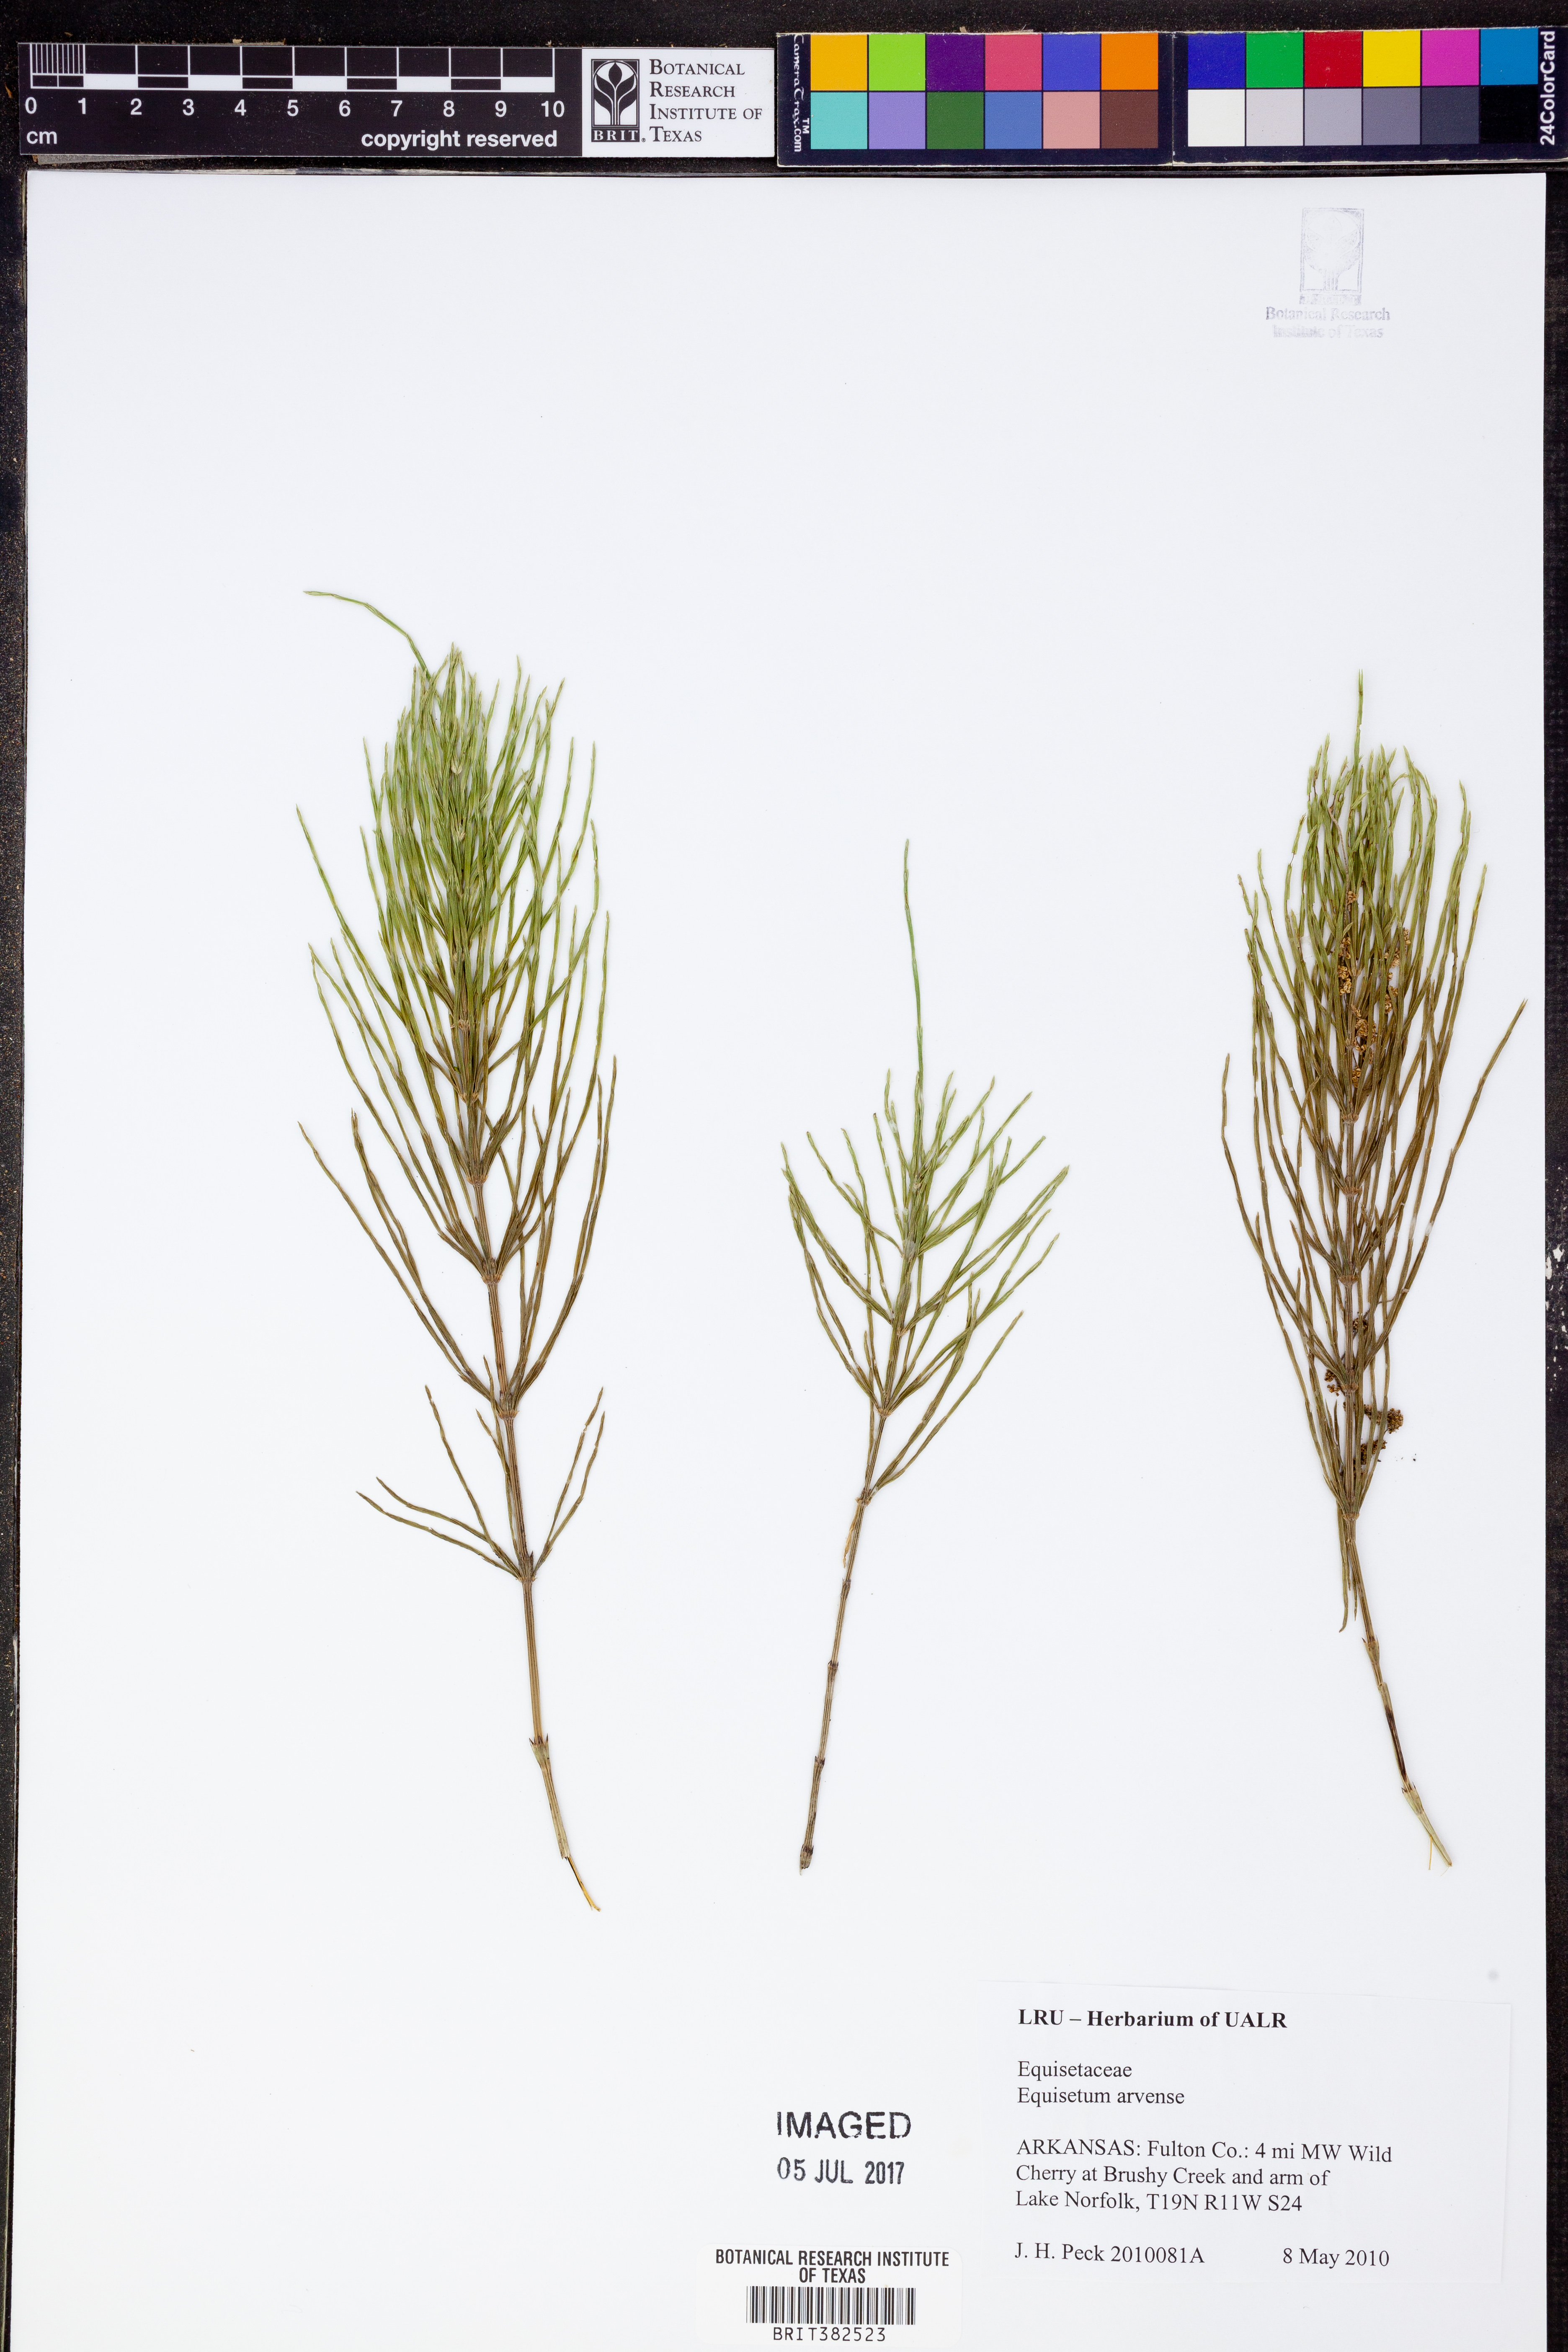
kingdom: Plantae
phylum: Tracheophyta
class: Polypodiopsida
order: Equisetales
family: Equisetaceae
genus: Equisetum
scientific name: Equisetum arvense
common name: Field horsetail
